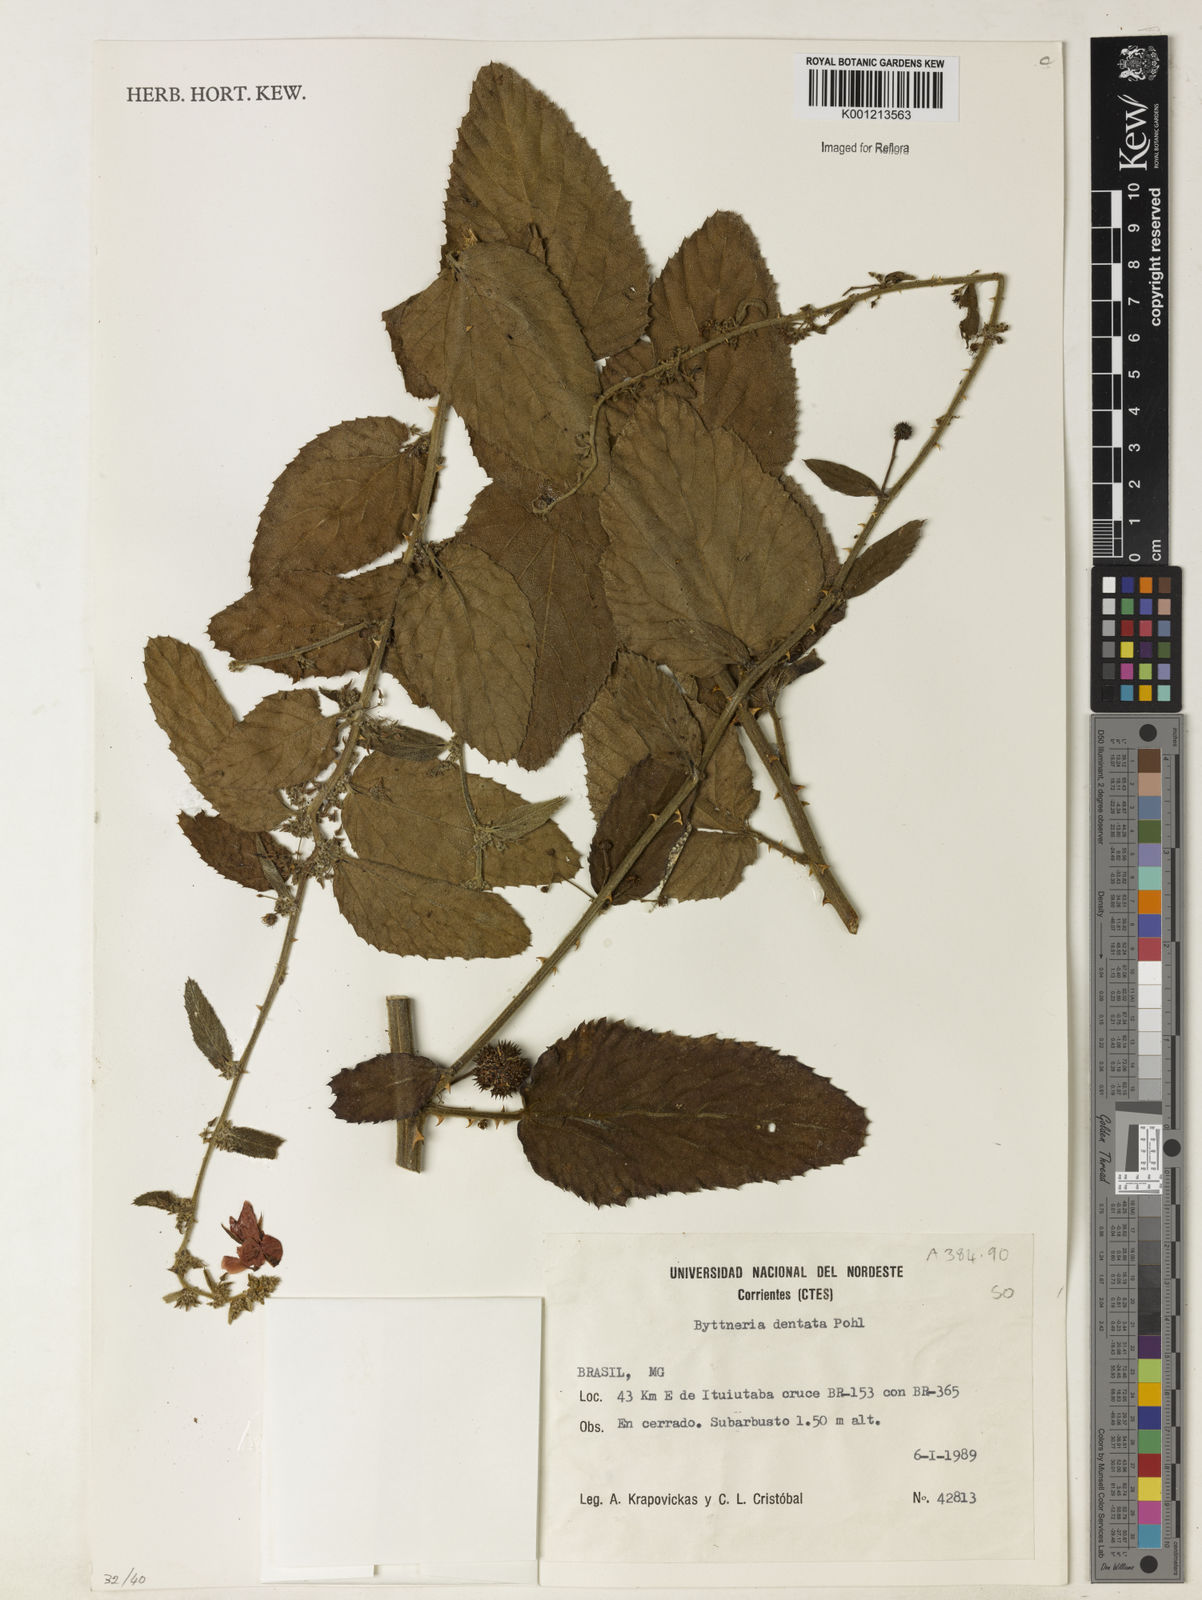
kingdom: Plantae
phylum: Tracheophyta
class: Magnoliopsida
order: Malvales
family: Malvaceae
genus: Byttneria
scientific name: Byttneria
